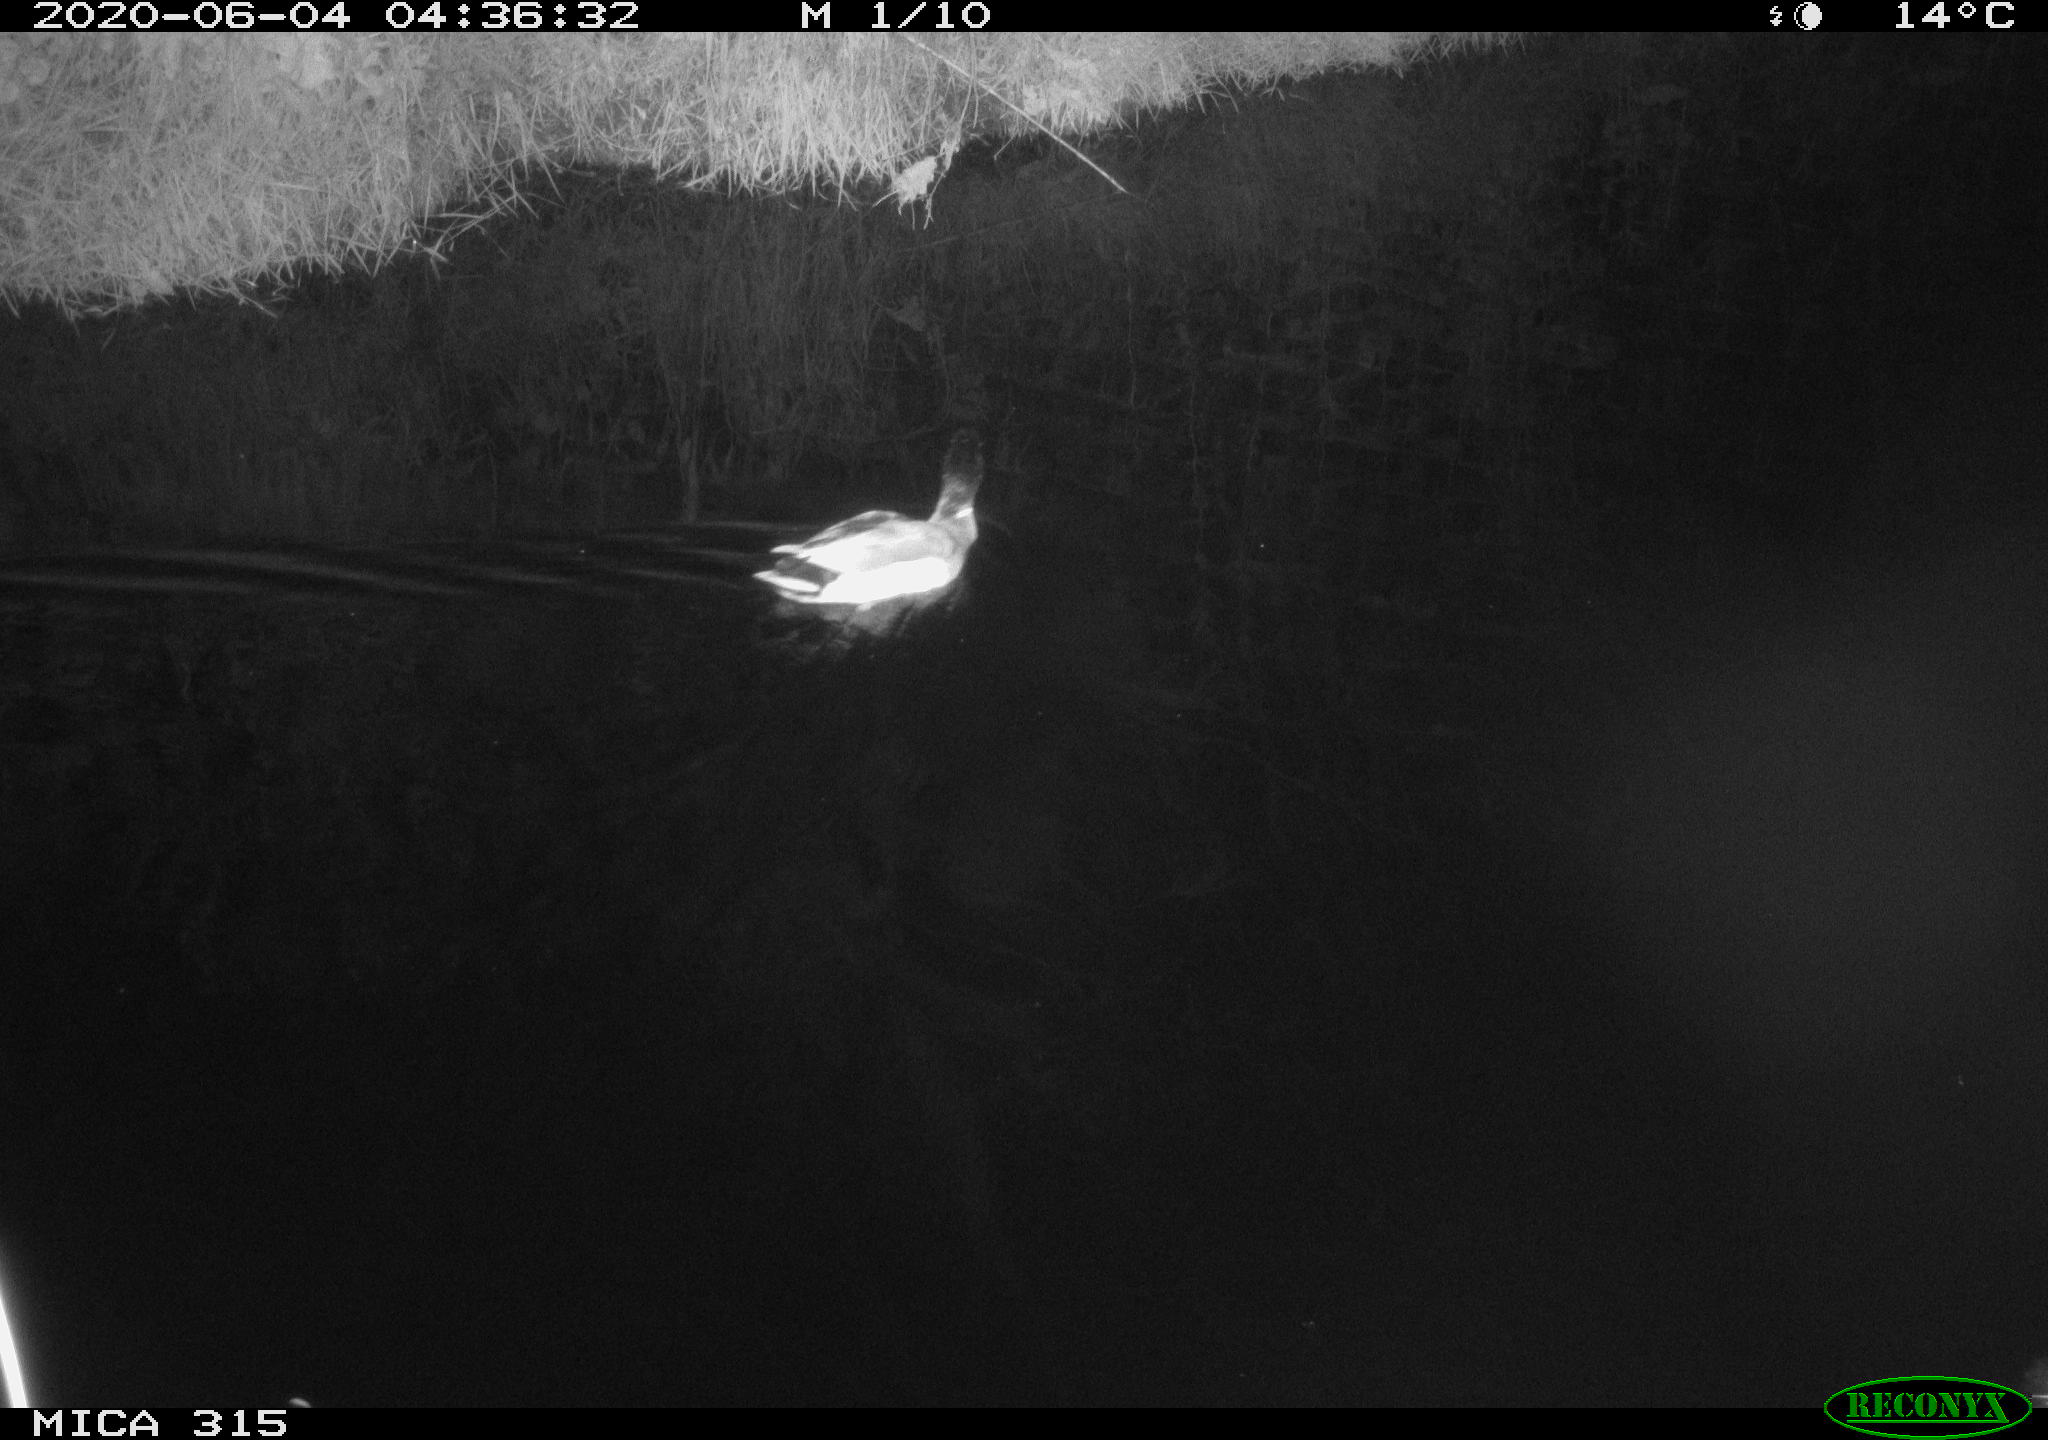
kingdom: Animalia
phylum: Chordata
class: Aves
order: Anseriformes
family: Anatidae
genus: Anas
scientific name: Anas platyrhynchos
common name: Mallard
